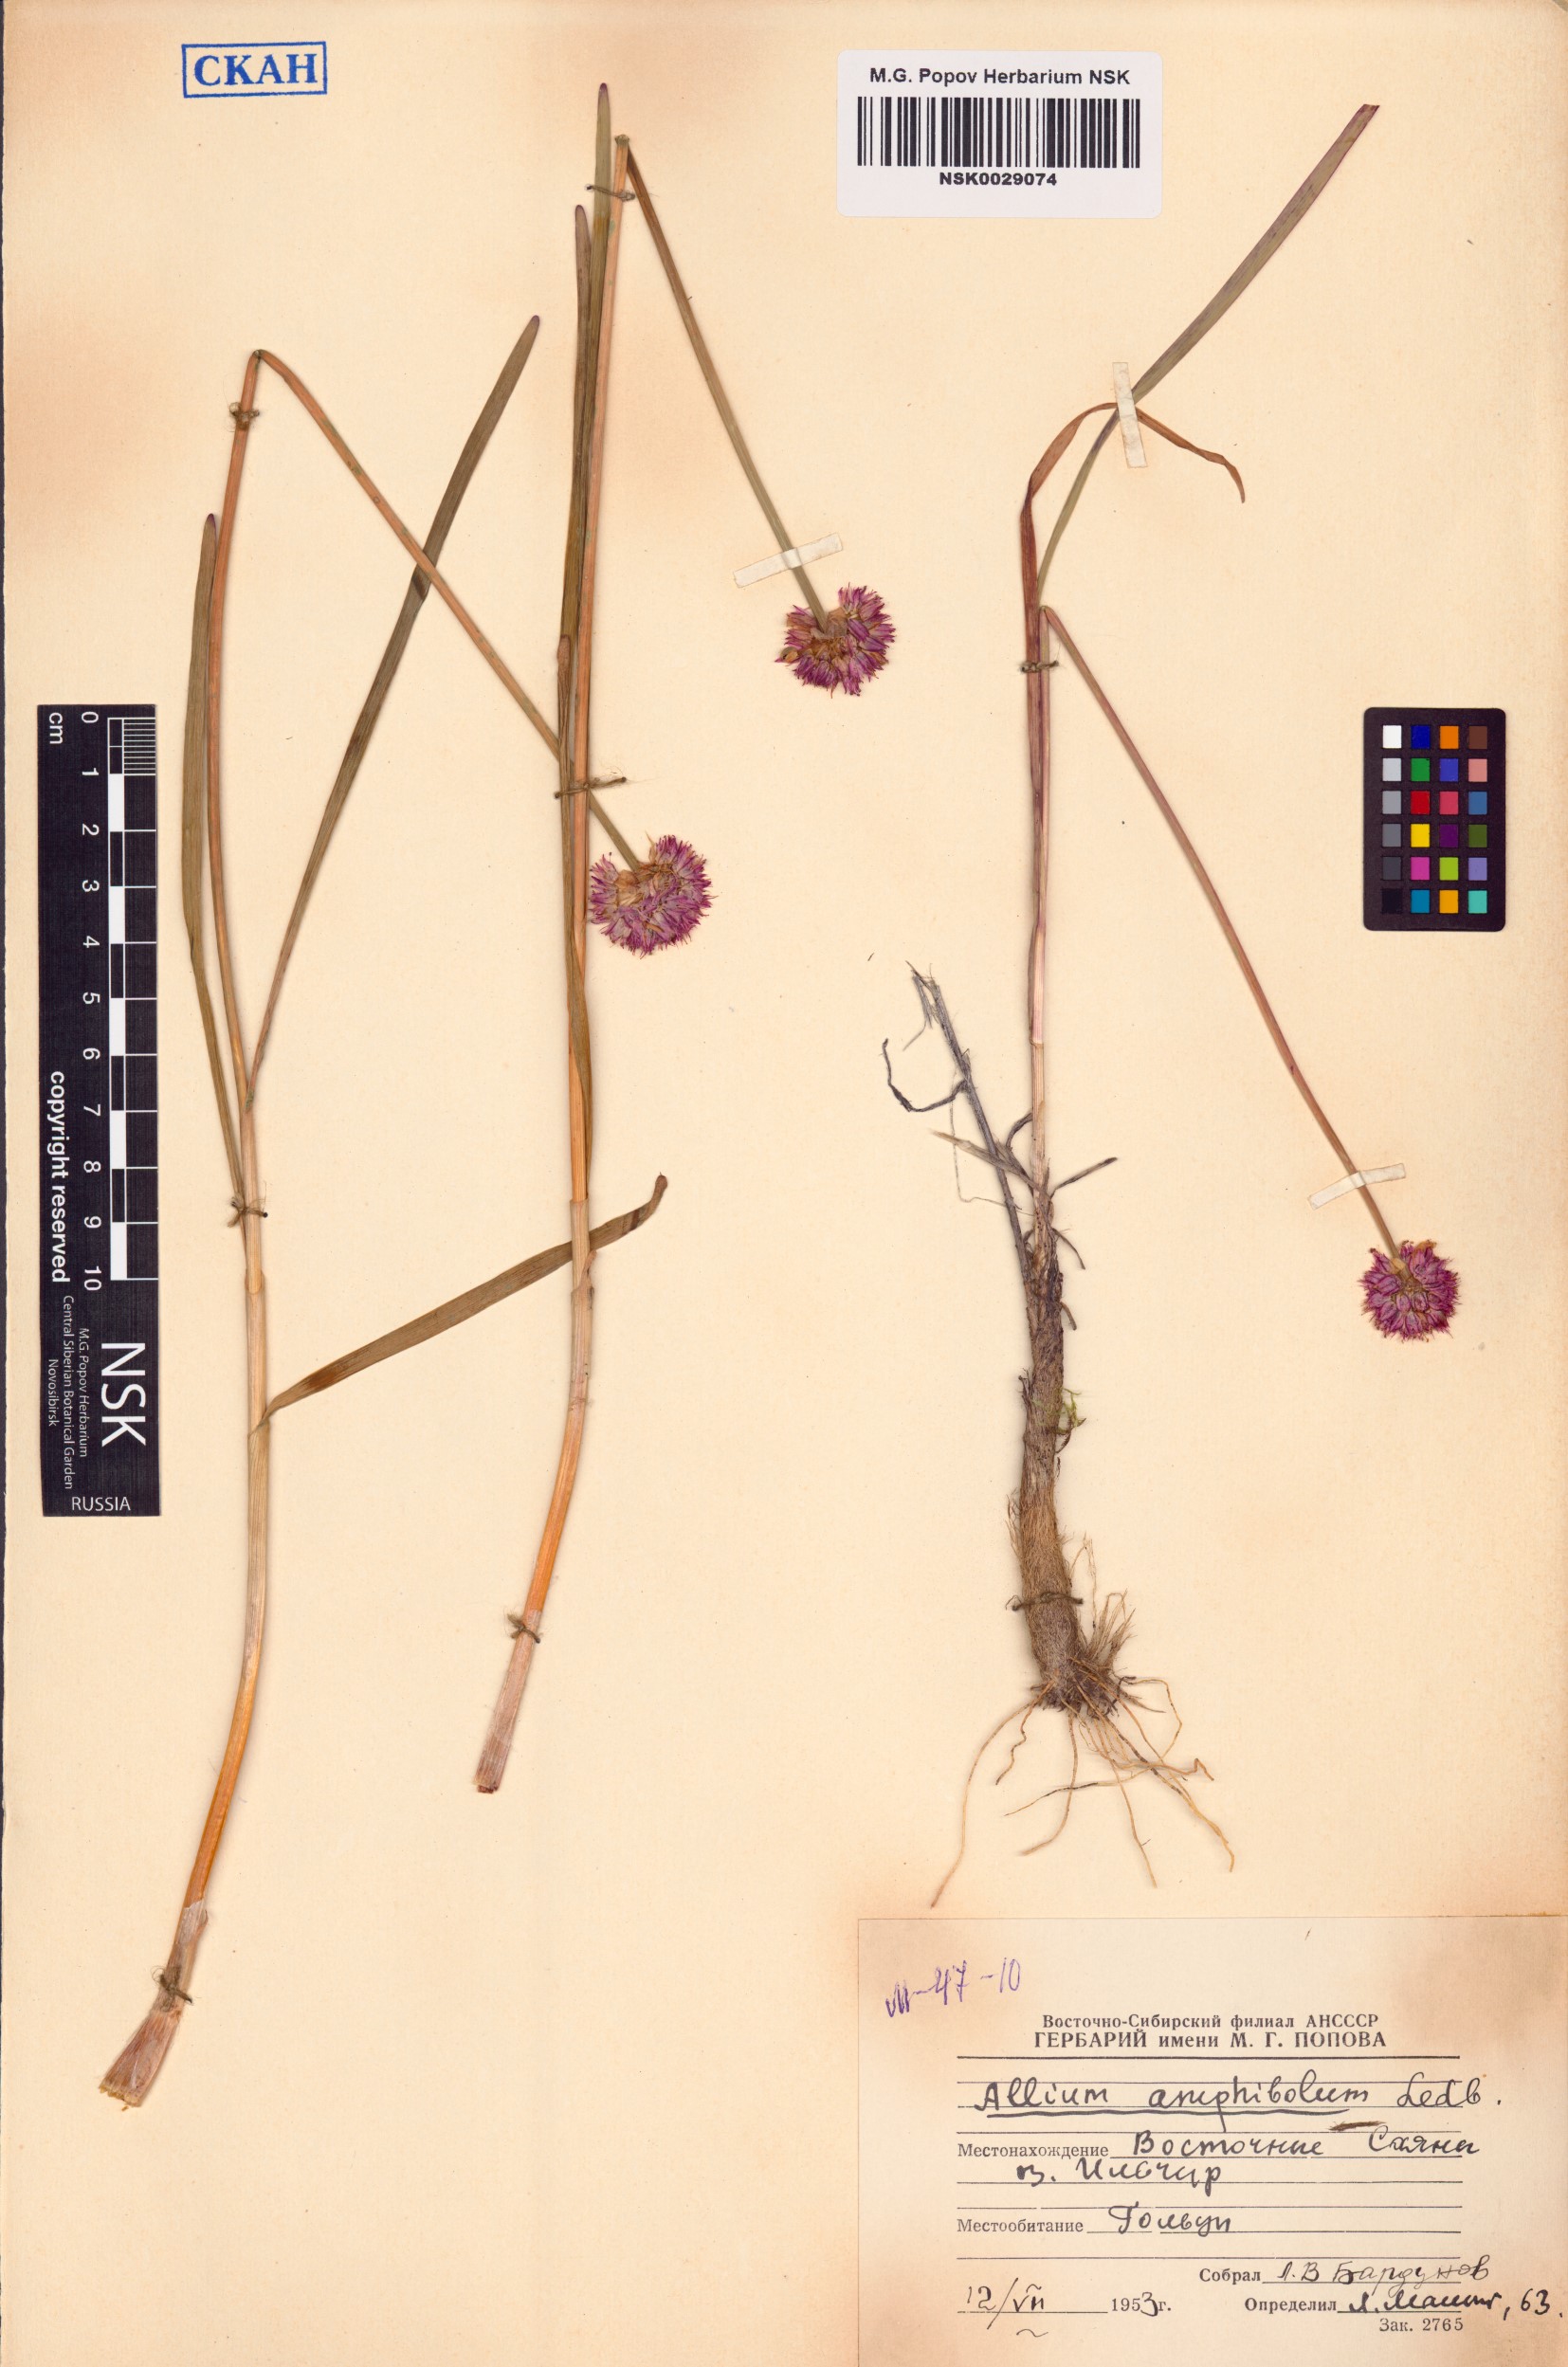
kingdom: Plantae
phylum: Tracheophyta
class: Liliopsida
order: Asparagales
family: Amaryllidaceae
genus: Allium
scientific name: Allium amphibolum
